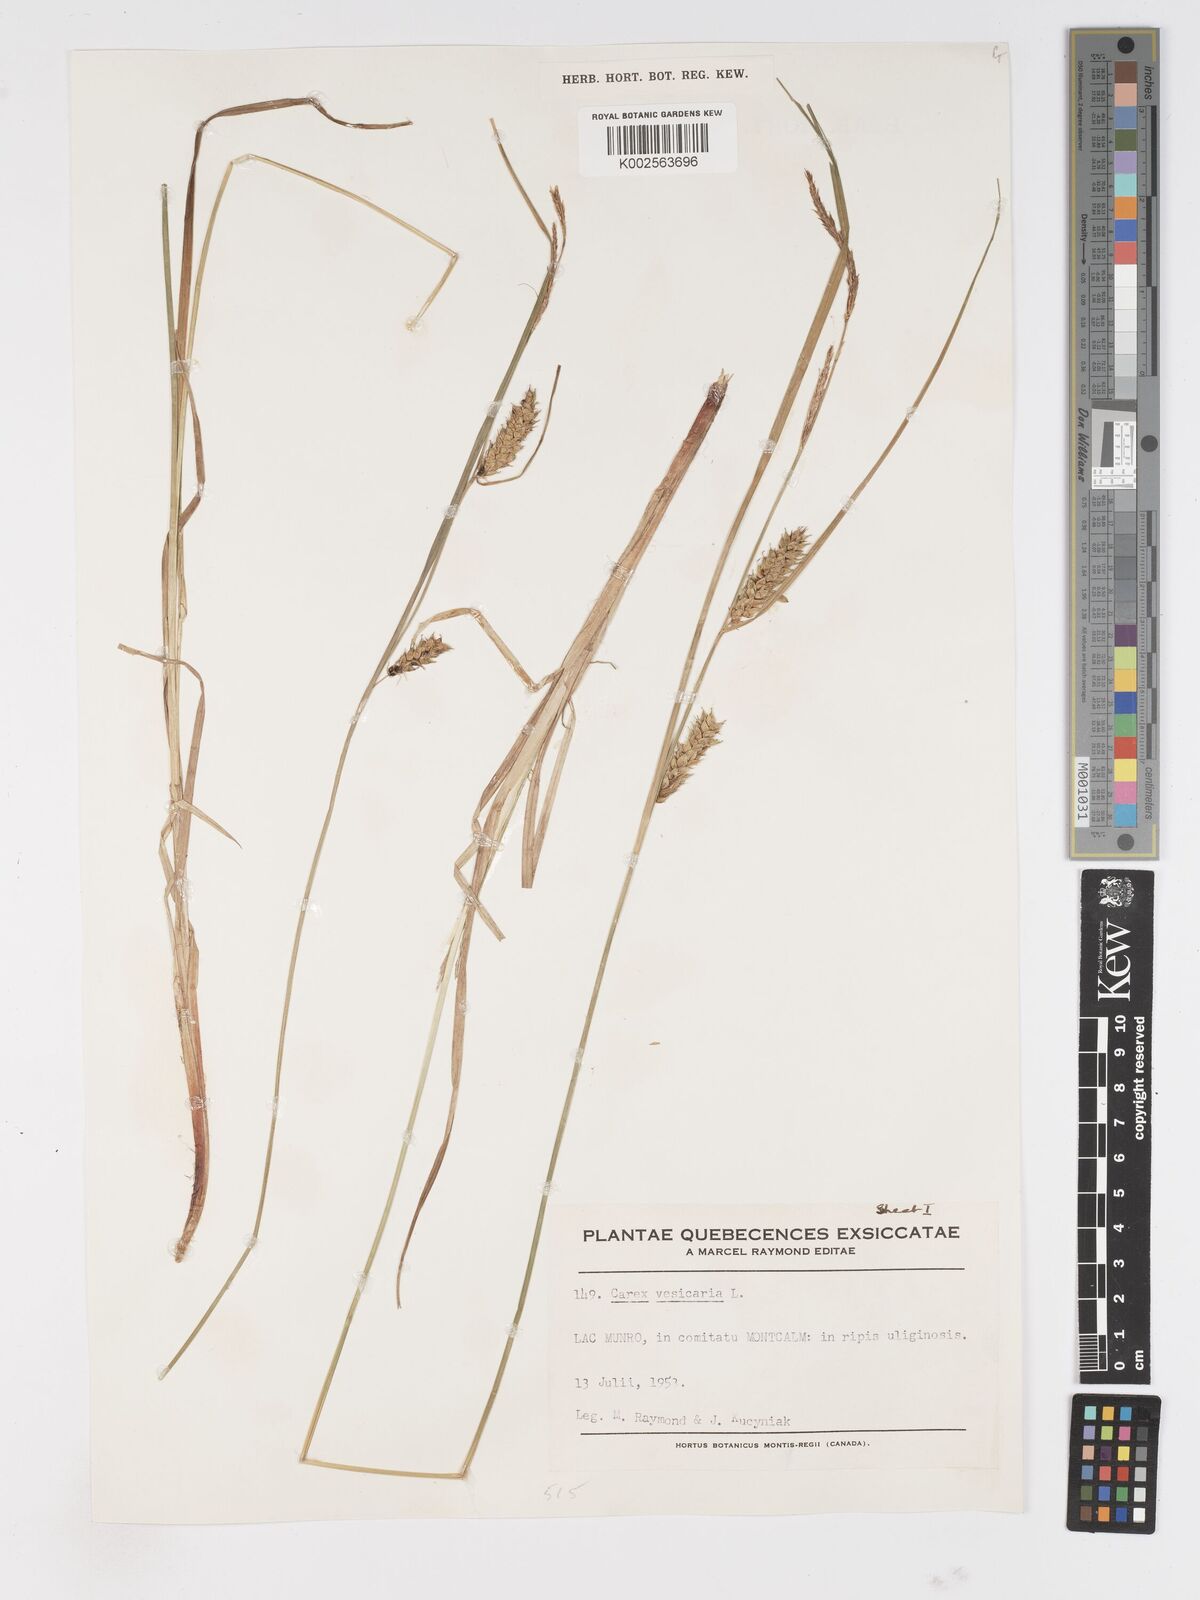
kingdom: Plantae
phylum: Tracheophyta
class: Liliopsida
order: Poales
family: Cyperaceae
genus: Carex
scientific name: Carex vesicaria
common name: Bladder-sedge
